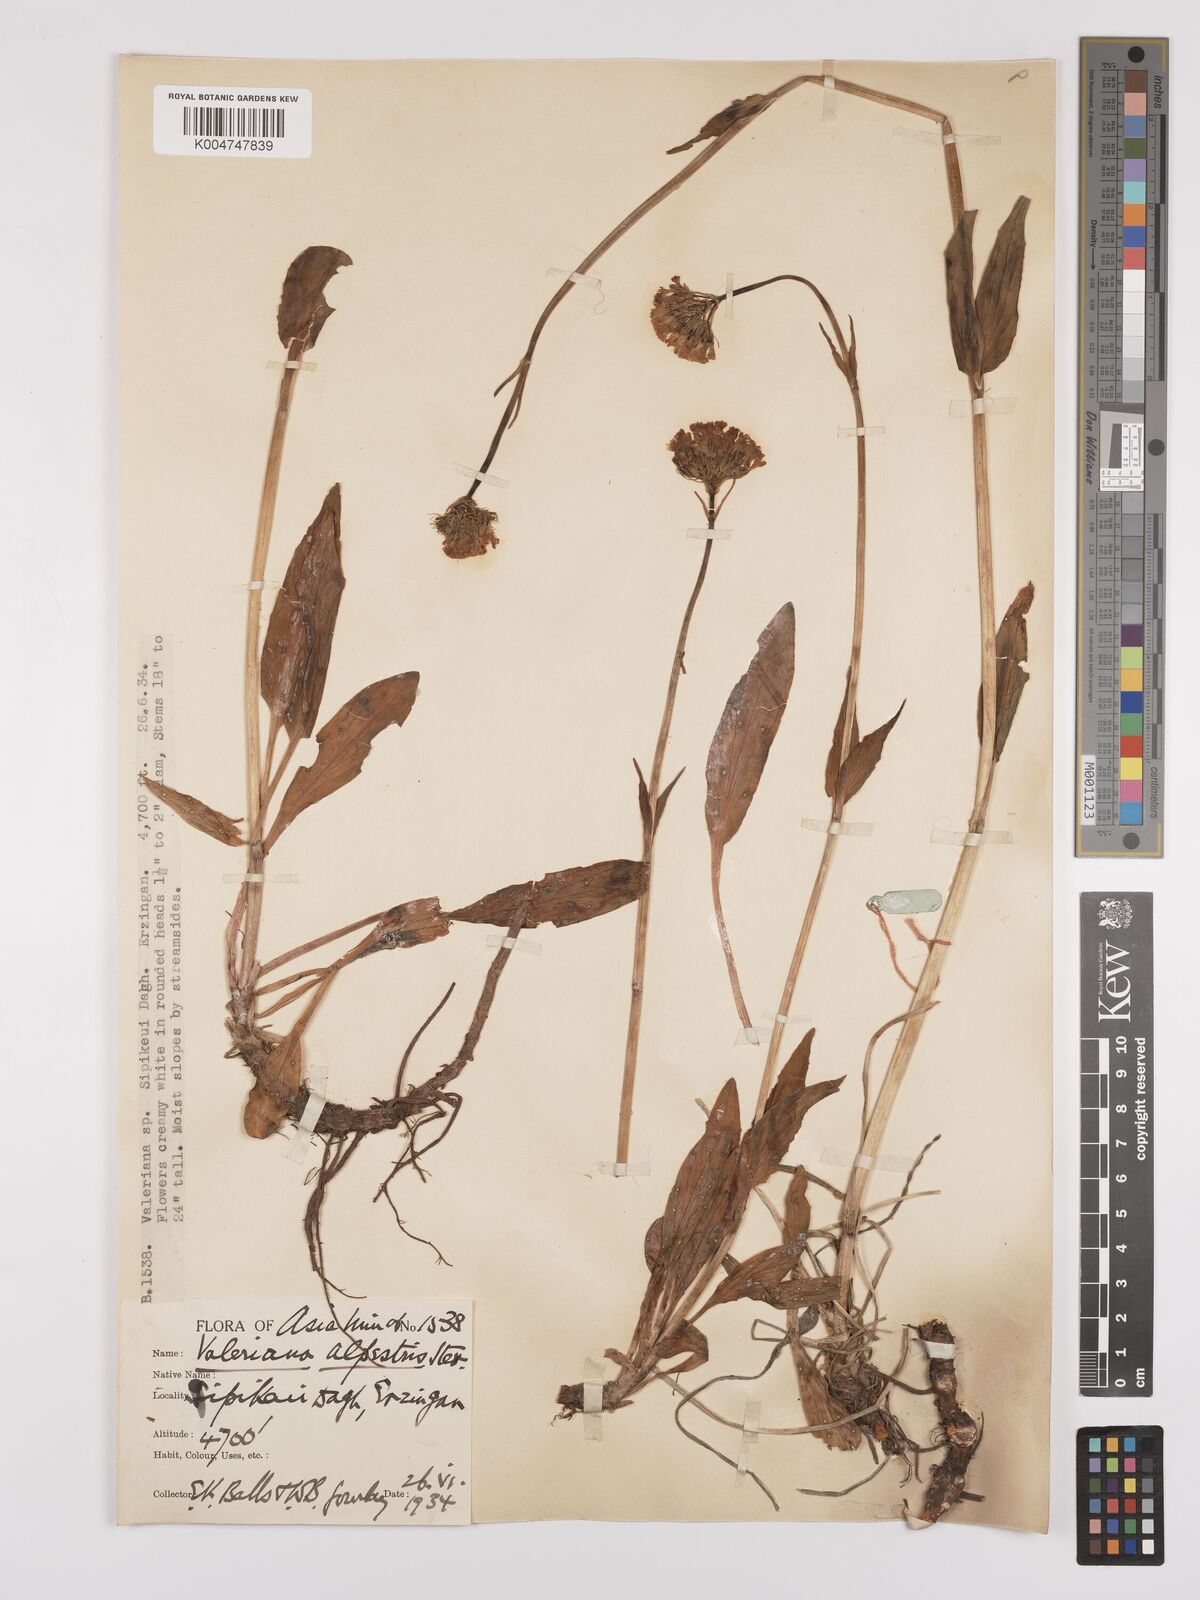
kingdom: Plantae
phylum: Tracheophyta
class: Magnoliopsida
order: Dipsacales
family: Caprifoliaceae
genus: Valeriana
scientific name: Valeriana alpestris
